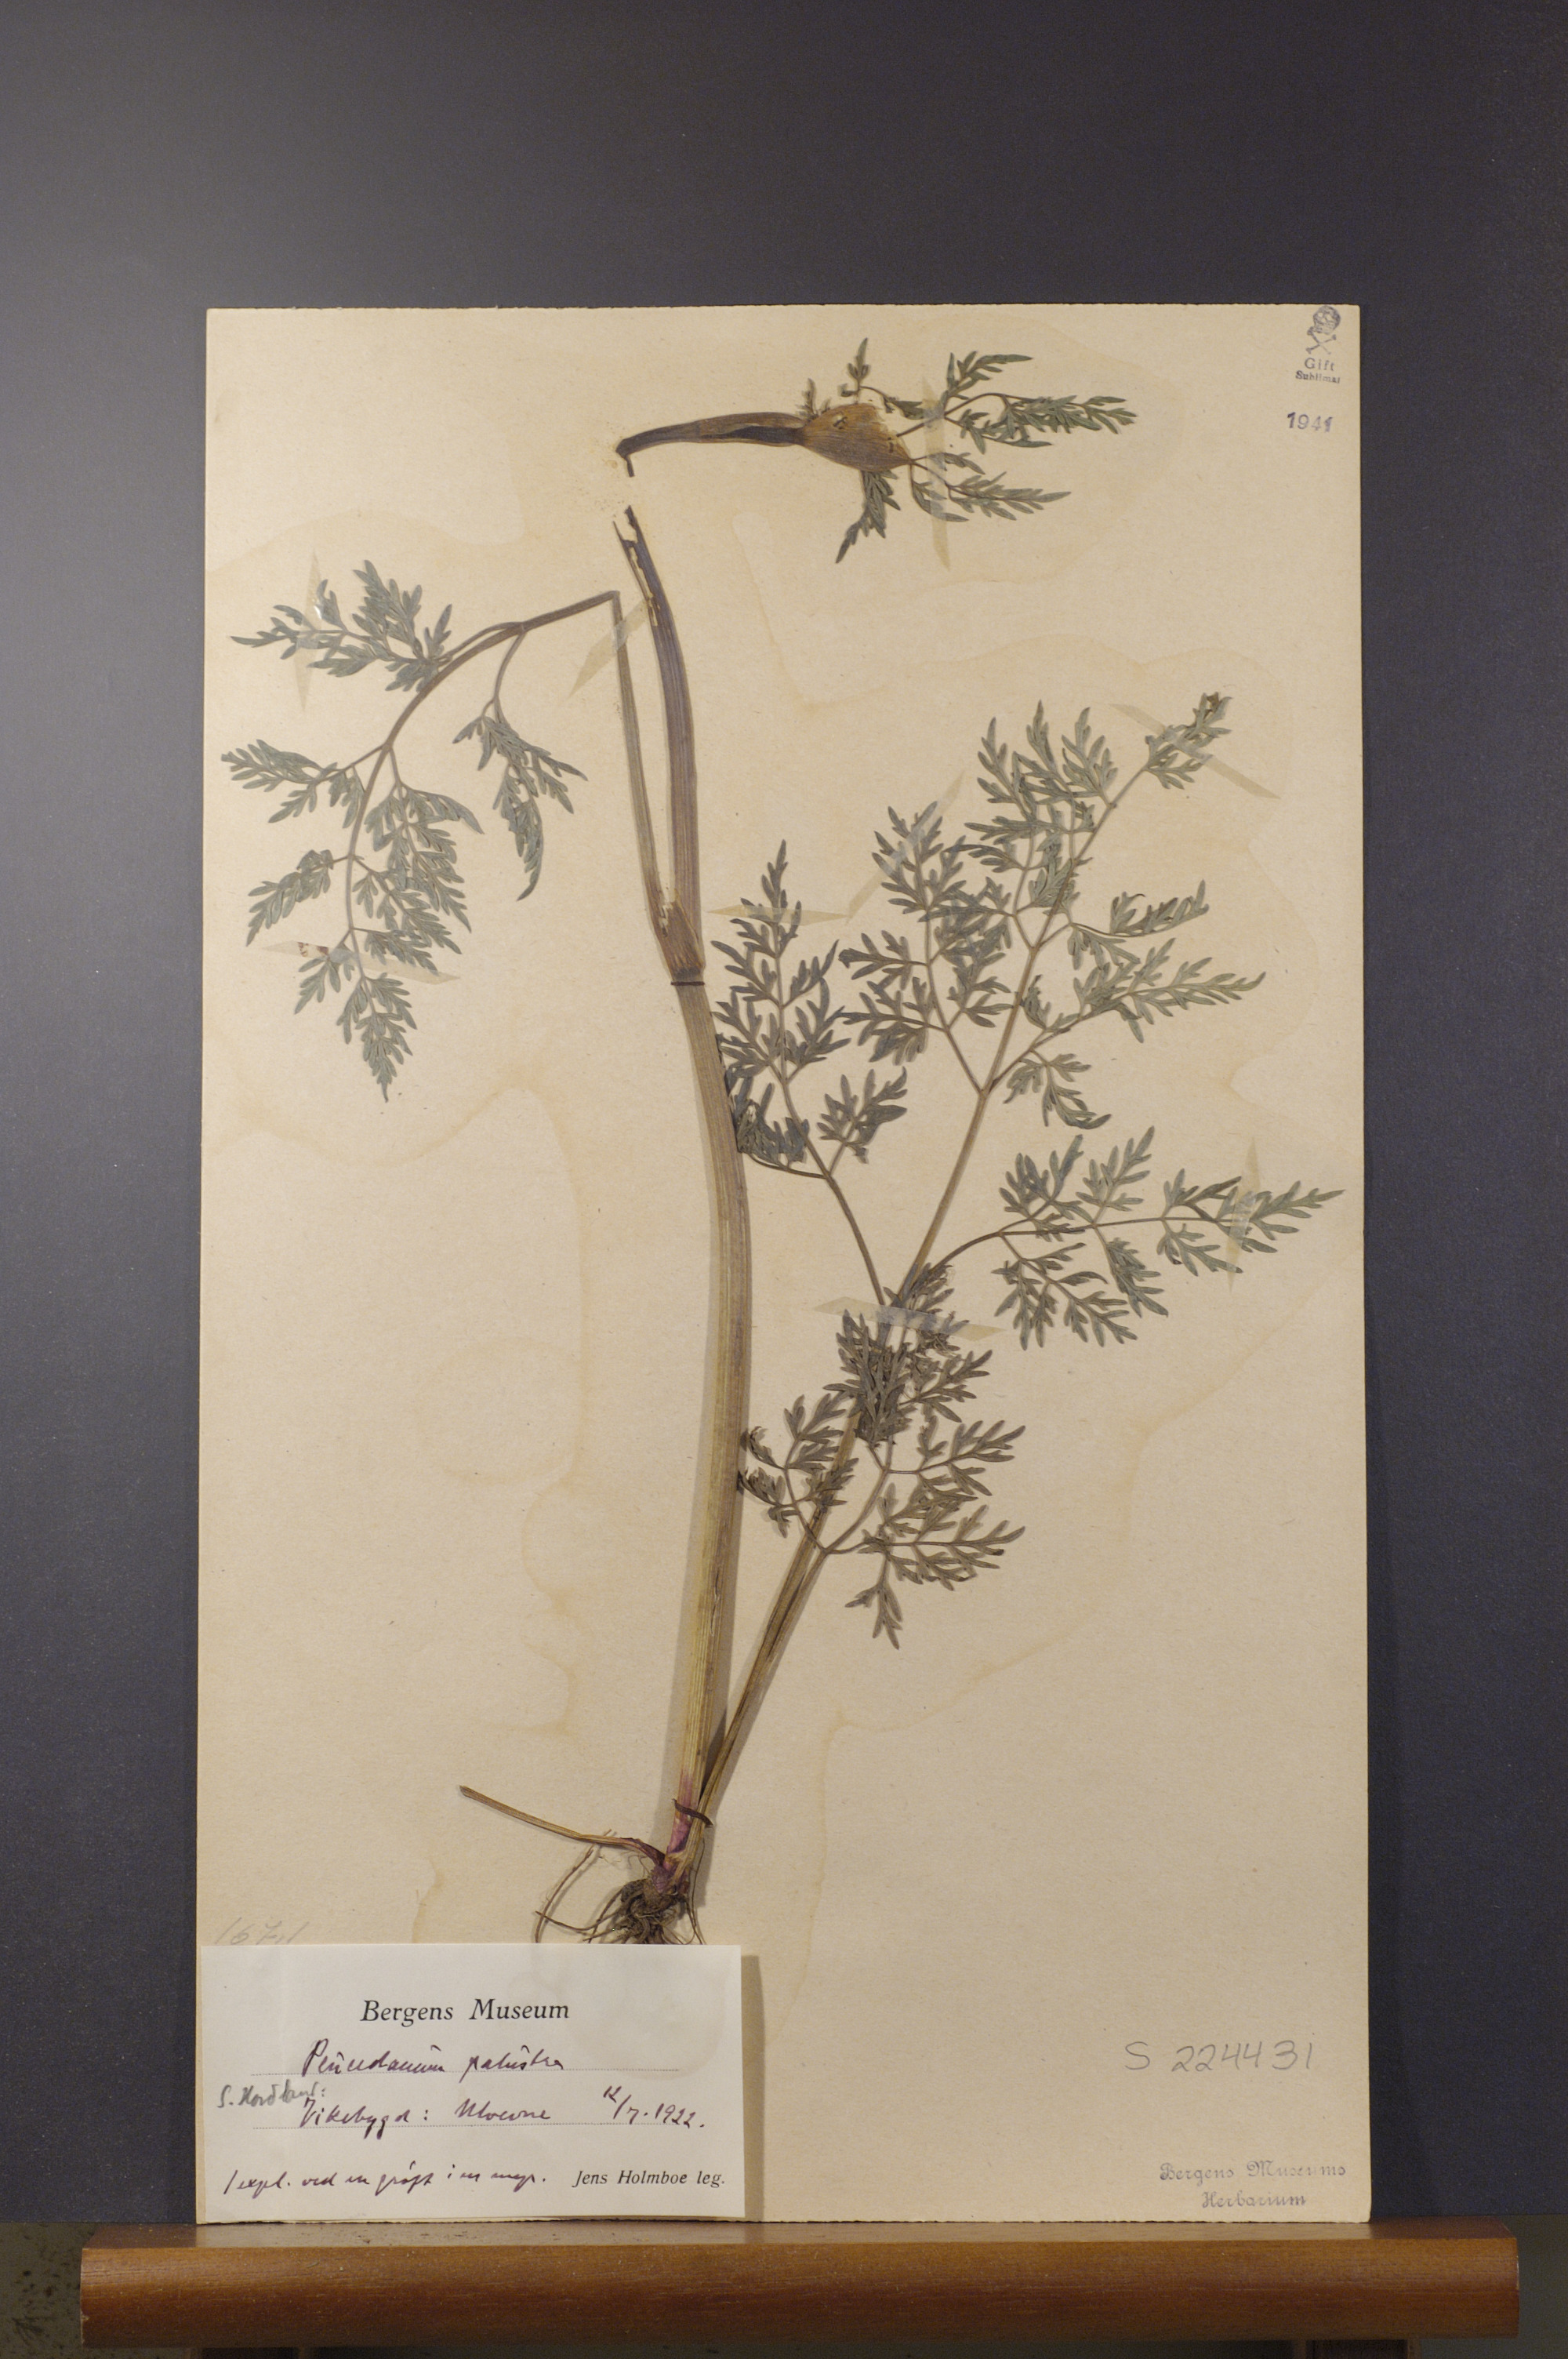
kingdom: Plantae
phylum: Tracheophyta
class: Magnoliopsida
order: Apiales
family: Apiaceae
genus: Thysselinum
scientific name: Thysselinum palustre
